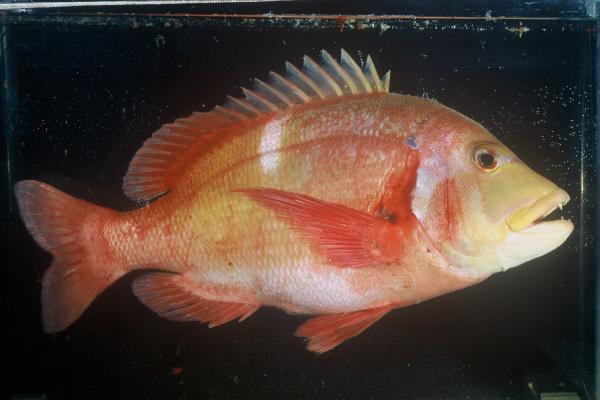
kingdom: Animalia
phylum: Chordata
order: Perciformes
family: Sparidae
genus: Chrysoblephus
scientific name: Chrysoblephus laticeps
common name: Roman seabream
